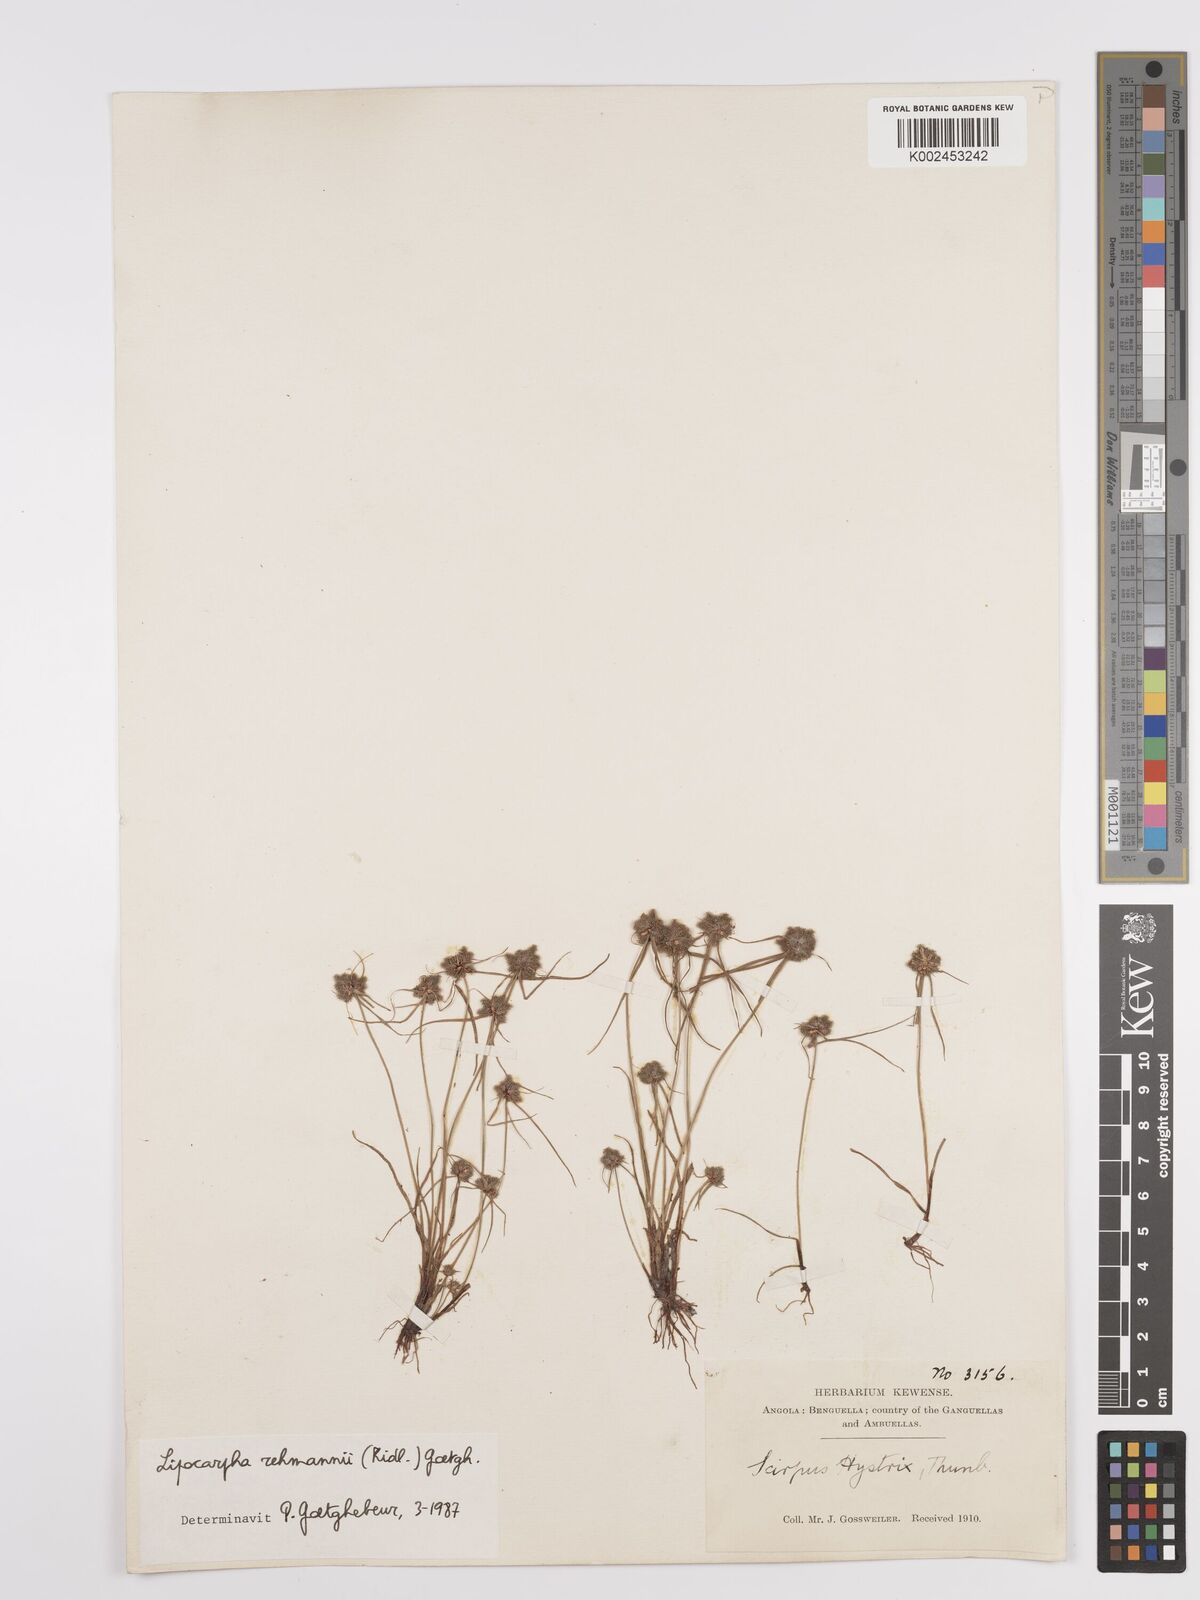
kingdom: Plantae
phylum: Tracheophyta
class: Liliopsida
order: Poales
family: Cyperaceae
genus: Cyperus
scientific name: Cyperus sanguinolentus
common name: Purpleglume flatsedge
